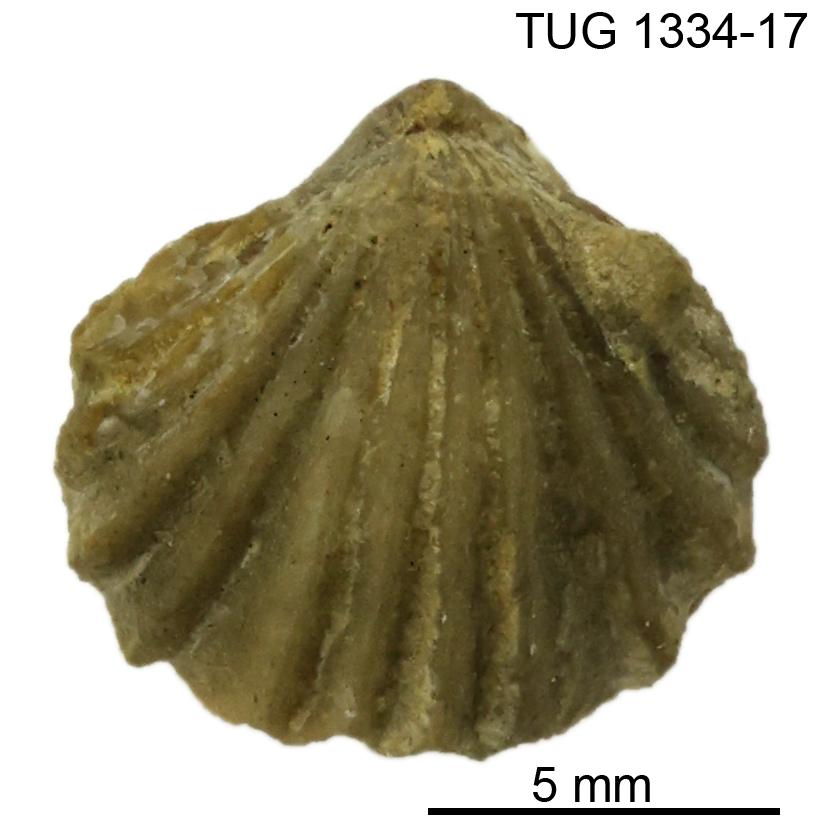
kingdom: Animalia
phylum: Brachiopoda
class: Rhynchonellata
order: Rhynchonellida
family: Trigonirhynchiidae
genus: Rostricellula
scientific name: Rostricellula nobilis
